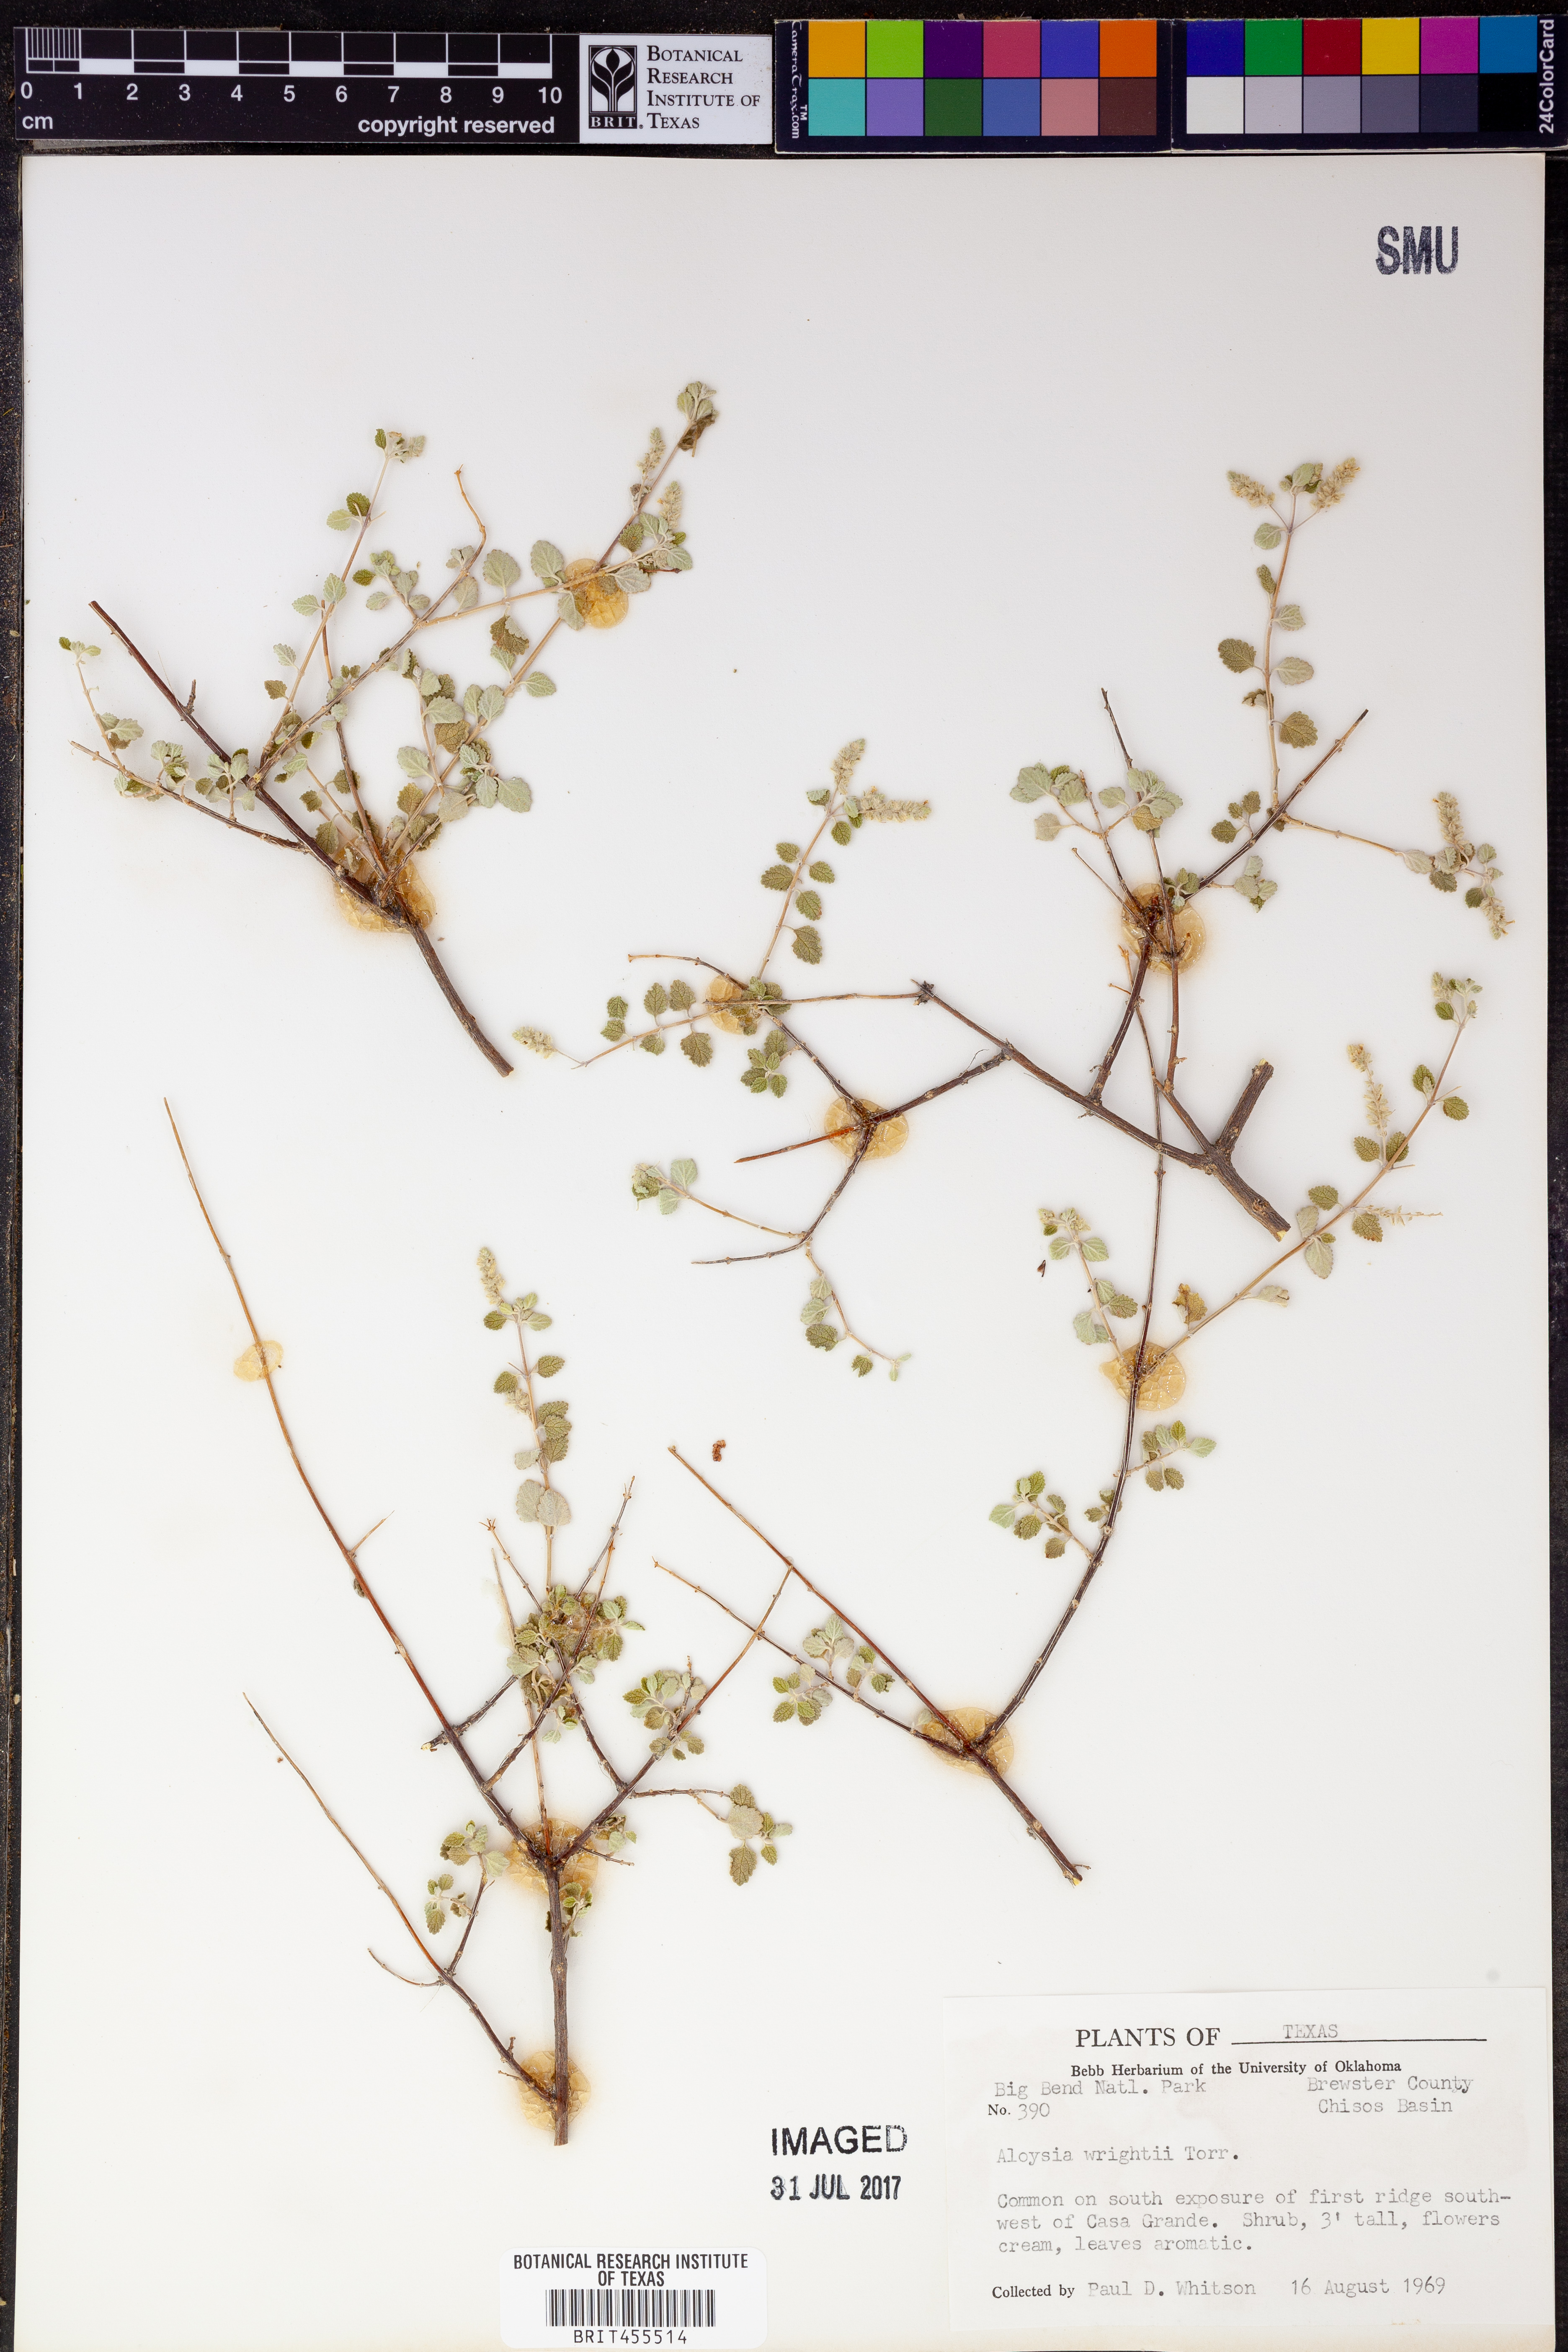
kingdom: Plantae
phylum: Tracheophyta
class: Magnoliopsida
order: Lamiales
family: Verbenaceae
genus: Aloysia
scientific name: Aloysia wrightii
